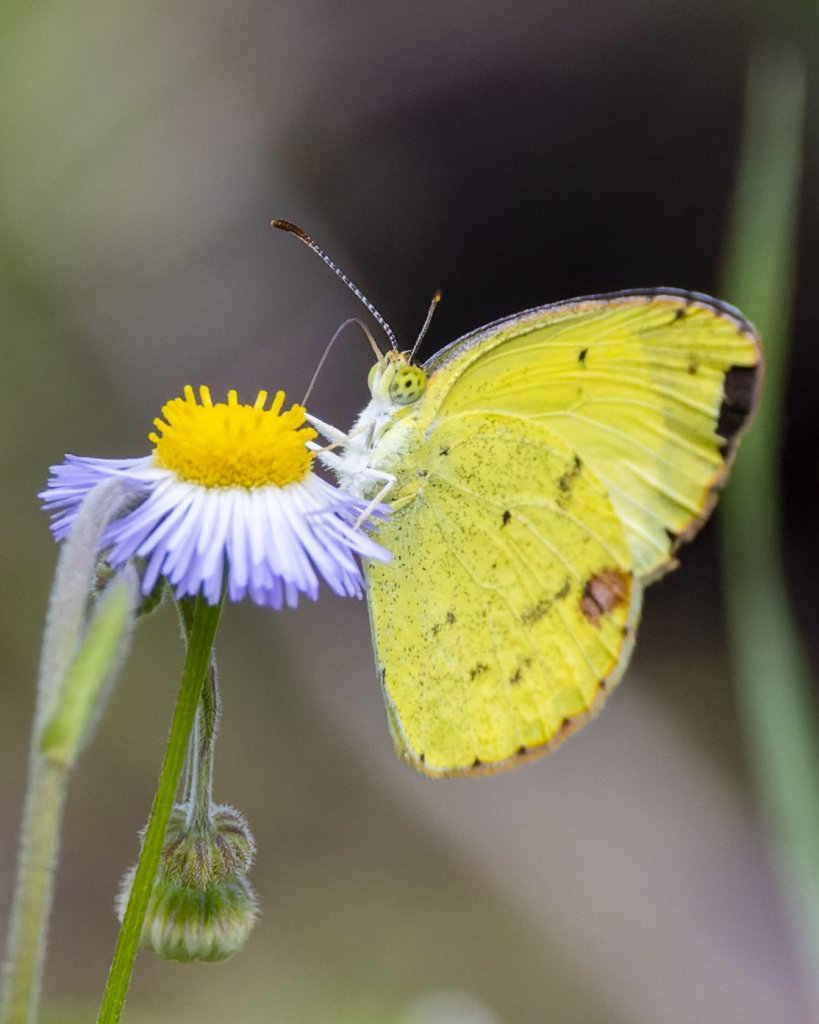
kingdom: Animalia
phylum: Arthropoda
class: Insecta
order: Lepidoptera
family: Pieridae
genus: Eurema
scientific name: Eurema daira
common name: Barred Yellow
